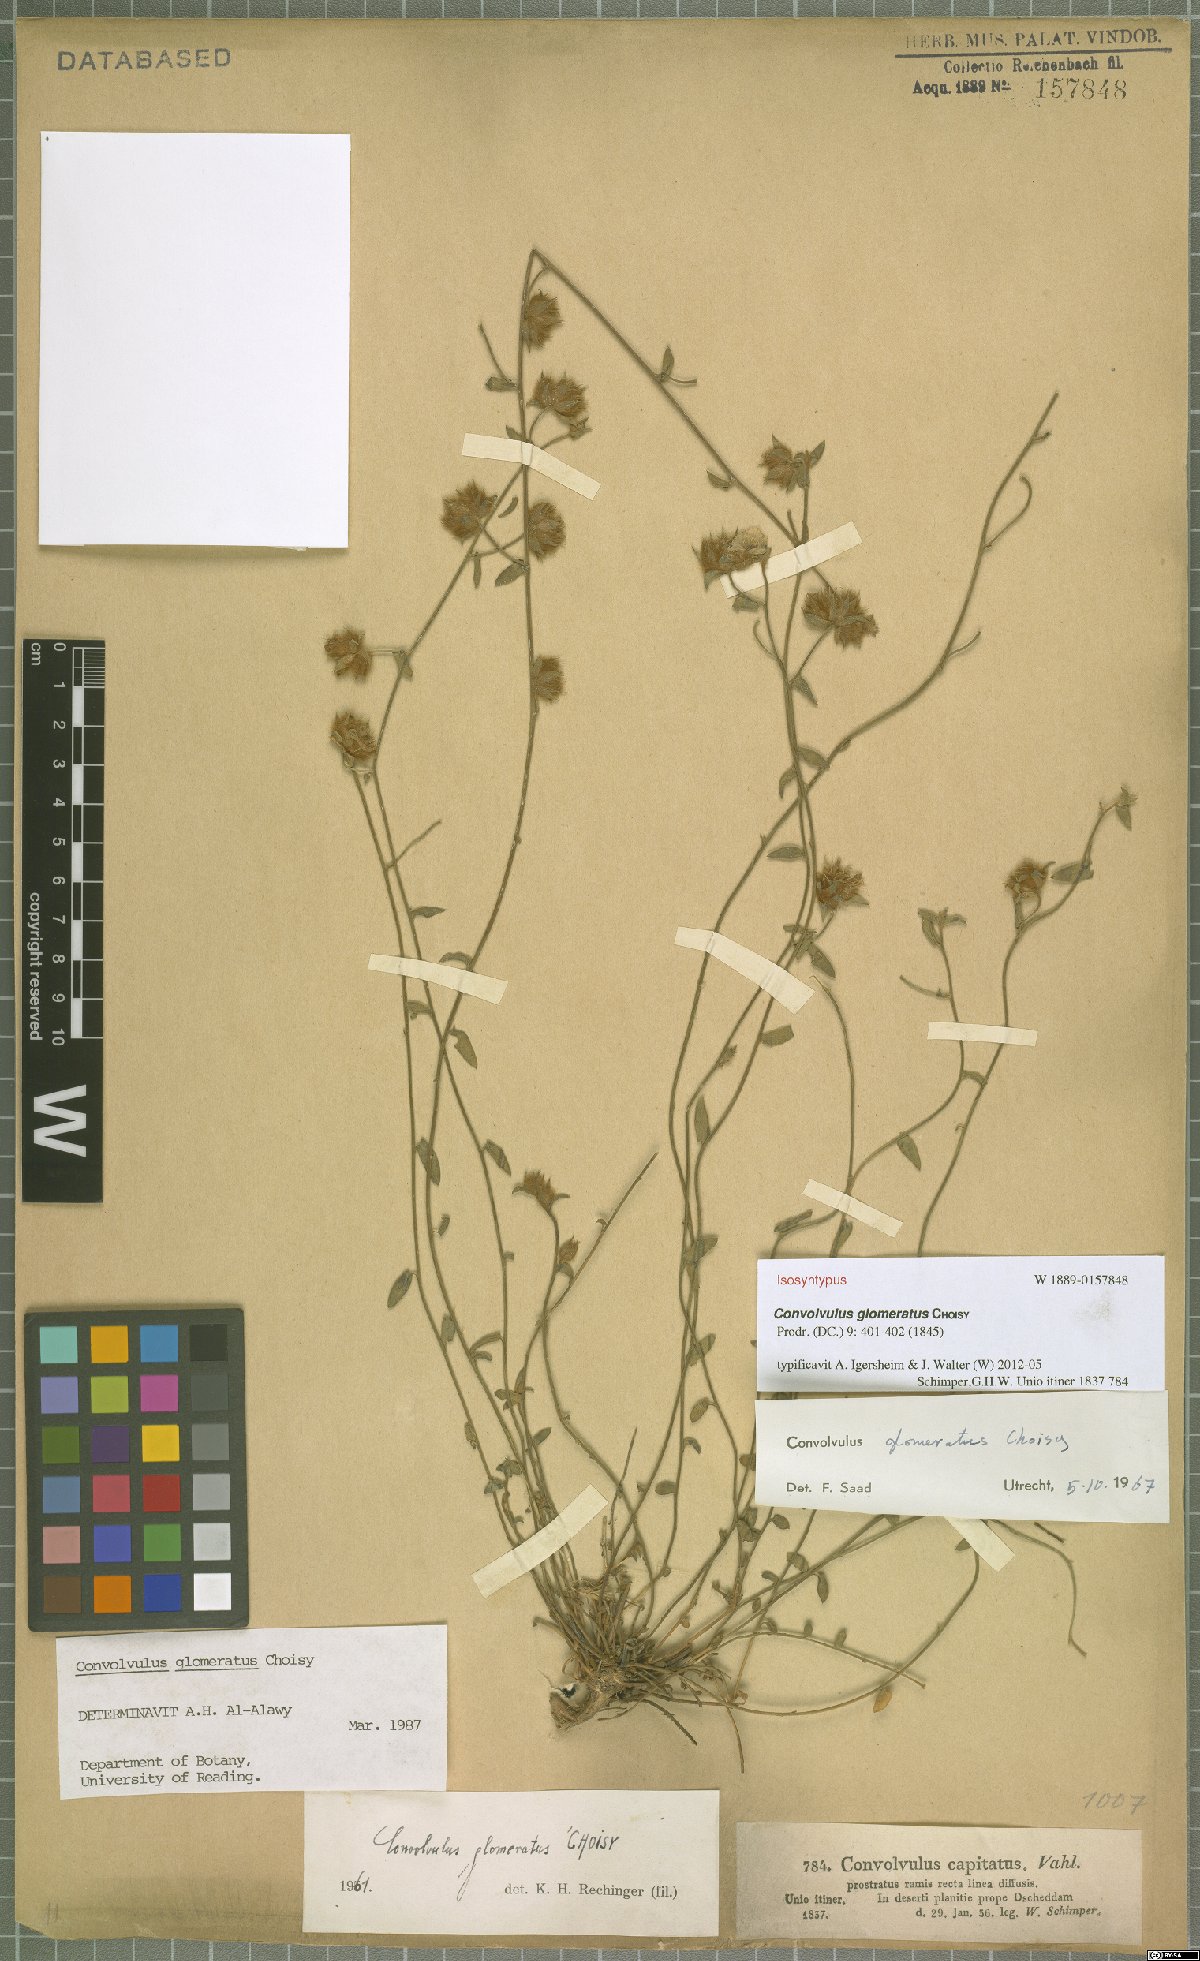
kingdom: Plantae
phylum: Tracheophyta
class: Magnoliopsida
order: Solanales
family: Convolvulaceae
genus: Convolvulus
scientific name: Convolvulus glomeratus
